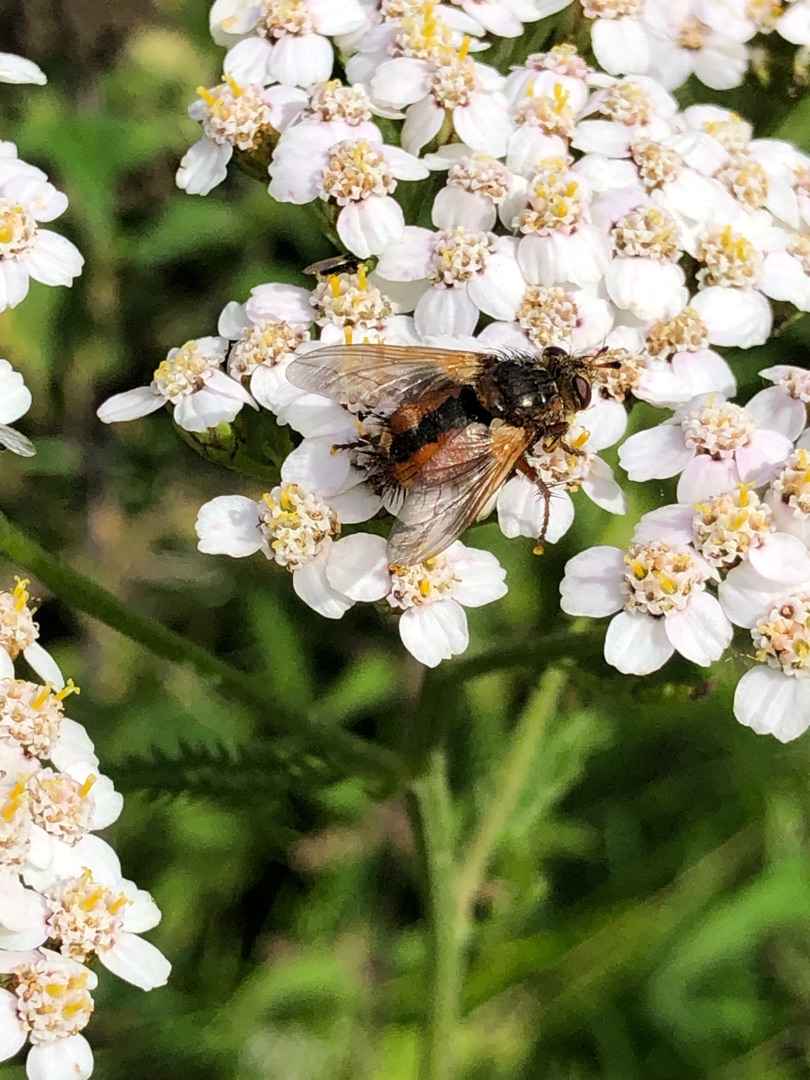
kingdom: Animalia
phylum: Arthropoda
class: Insecta
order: Diptera
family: Tachinidae
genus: Tachina
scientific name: Tachina fera
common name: Mellemfluen oskar
